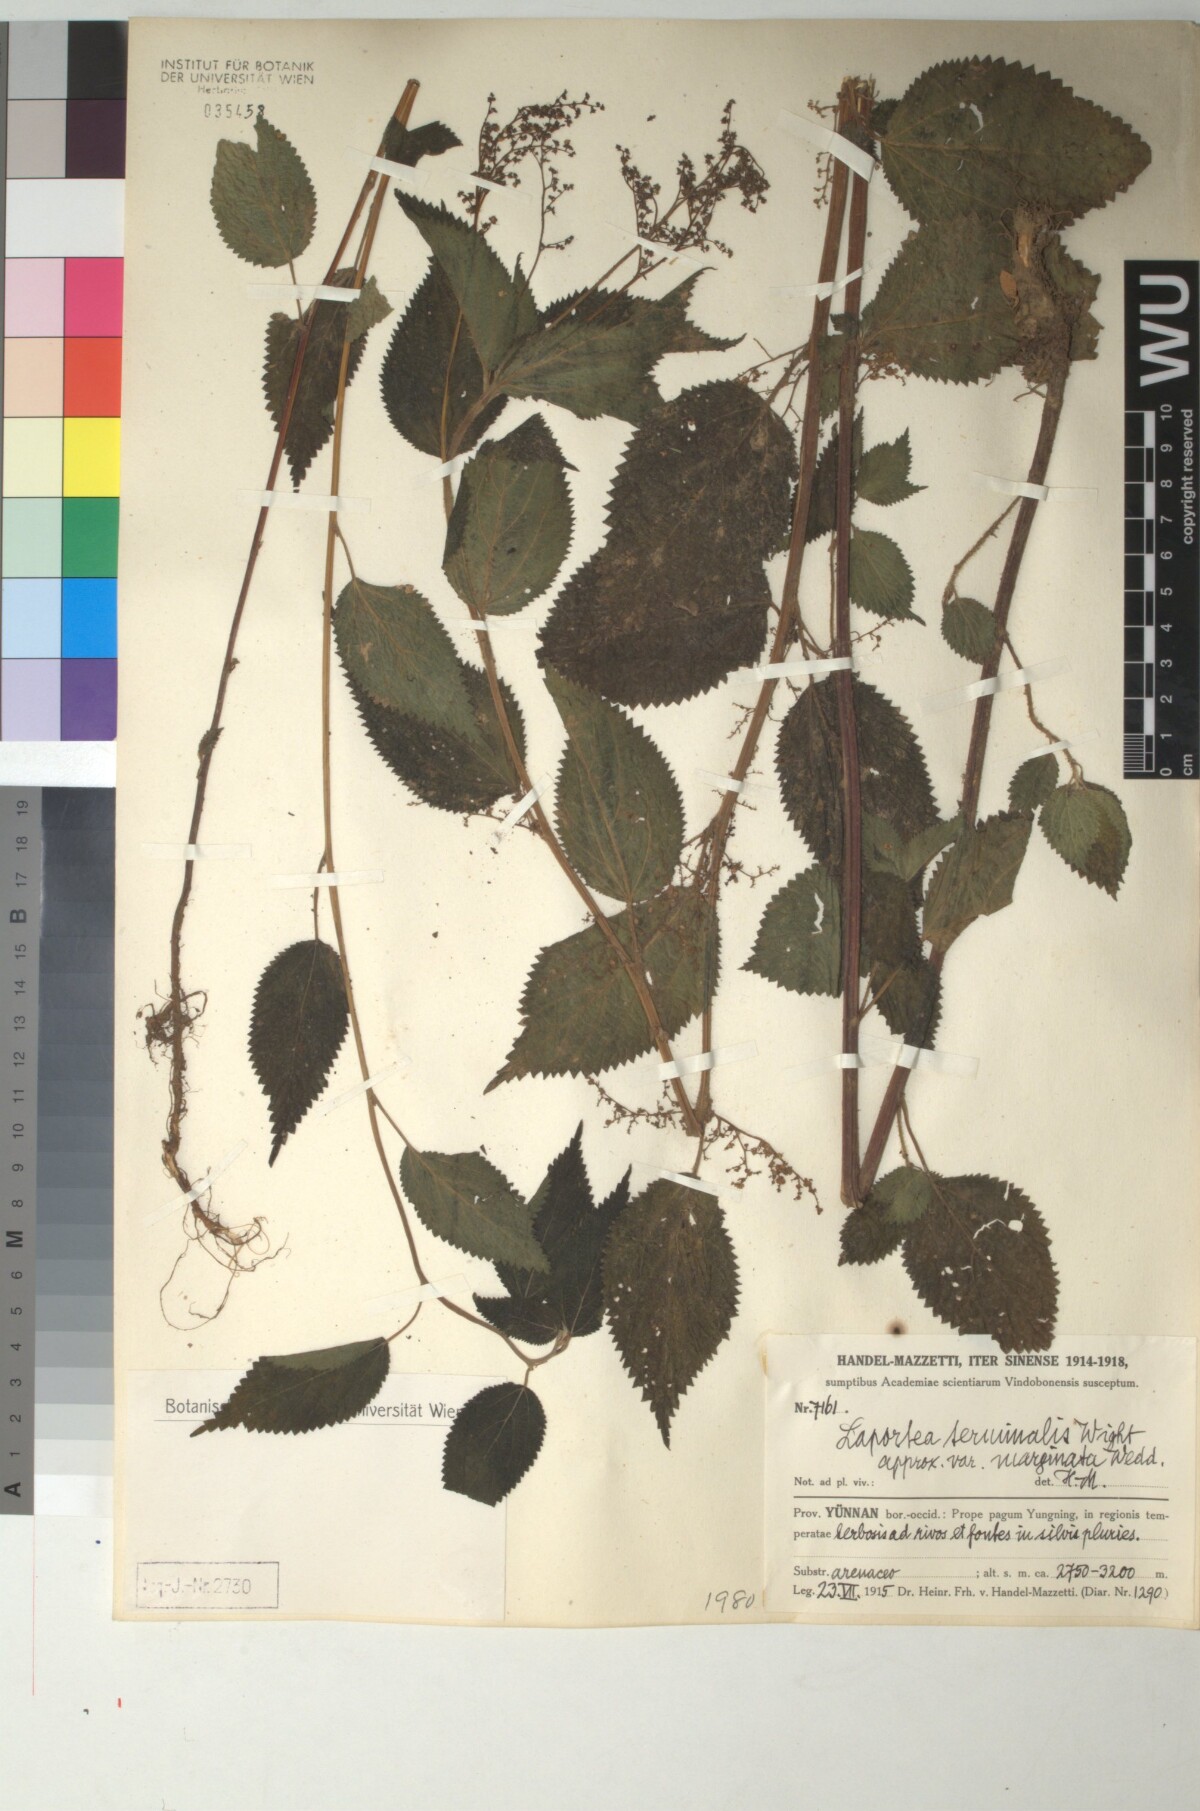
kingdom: Plantae
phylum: Tracheophyta
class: Magnoliopsida
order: Rosales
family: Urticaceae
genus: Laportea
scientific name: Laportea bulbifera
